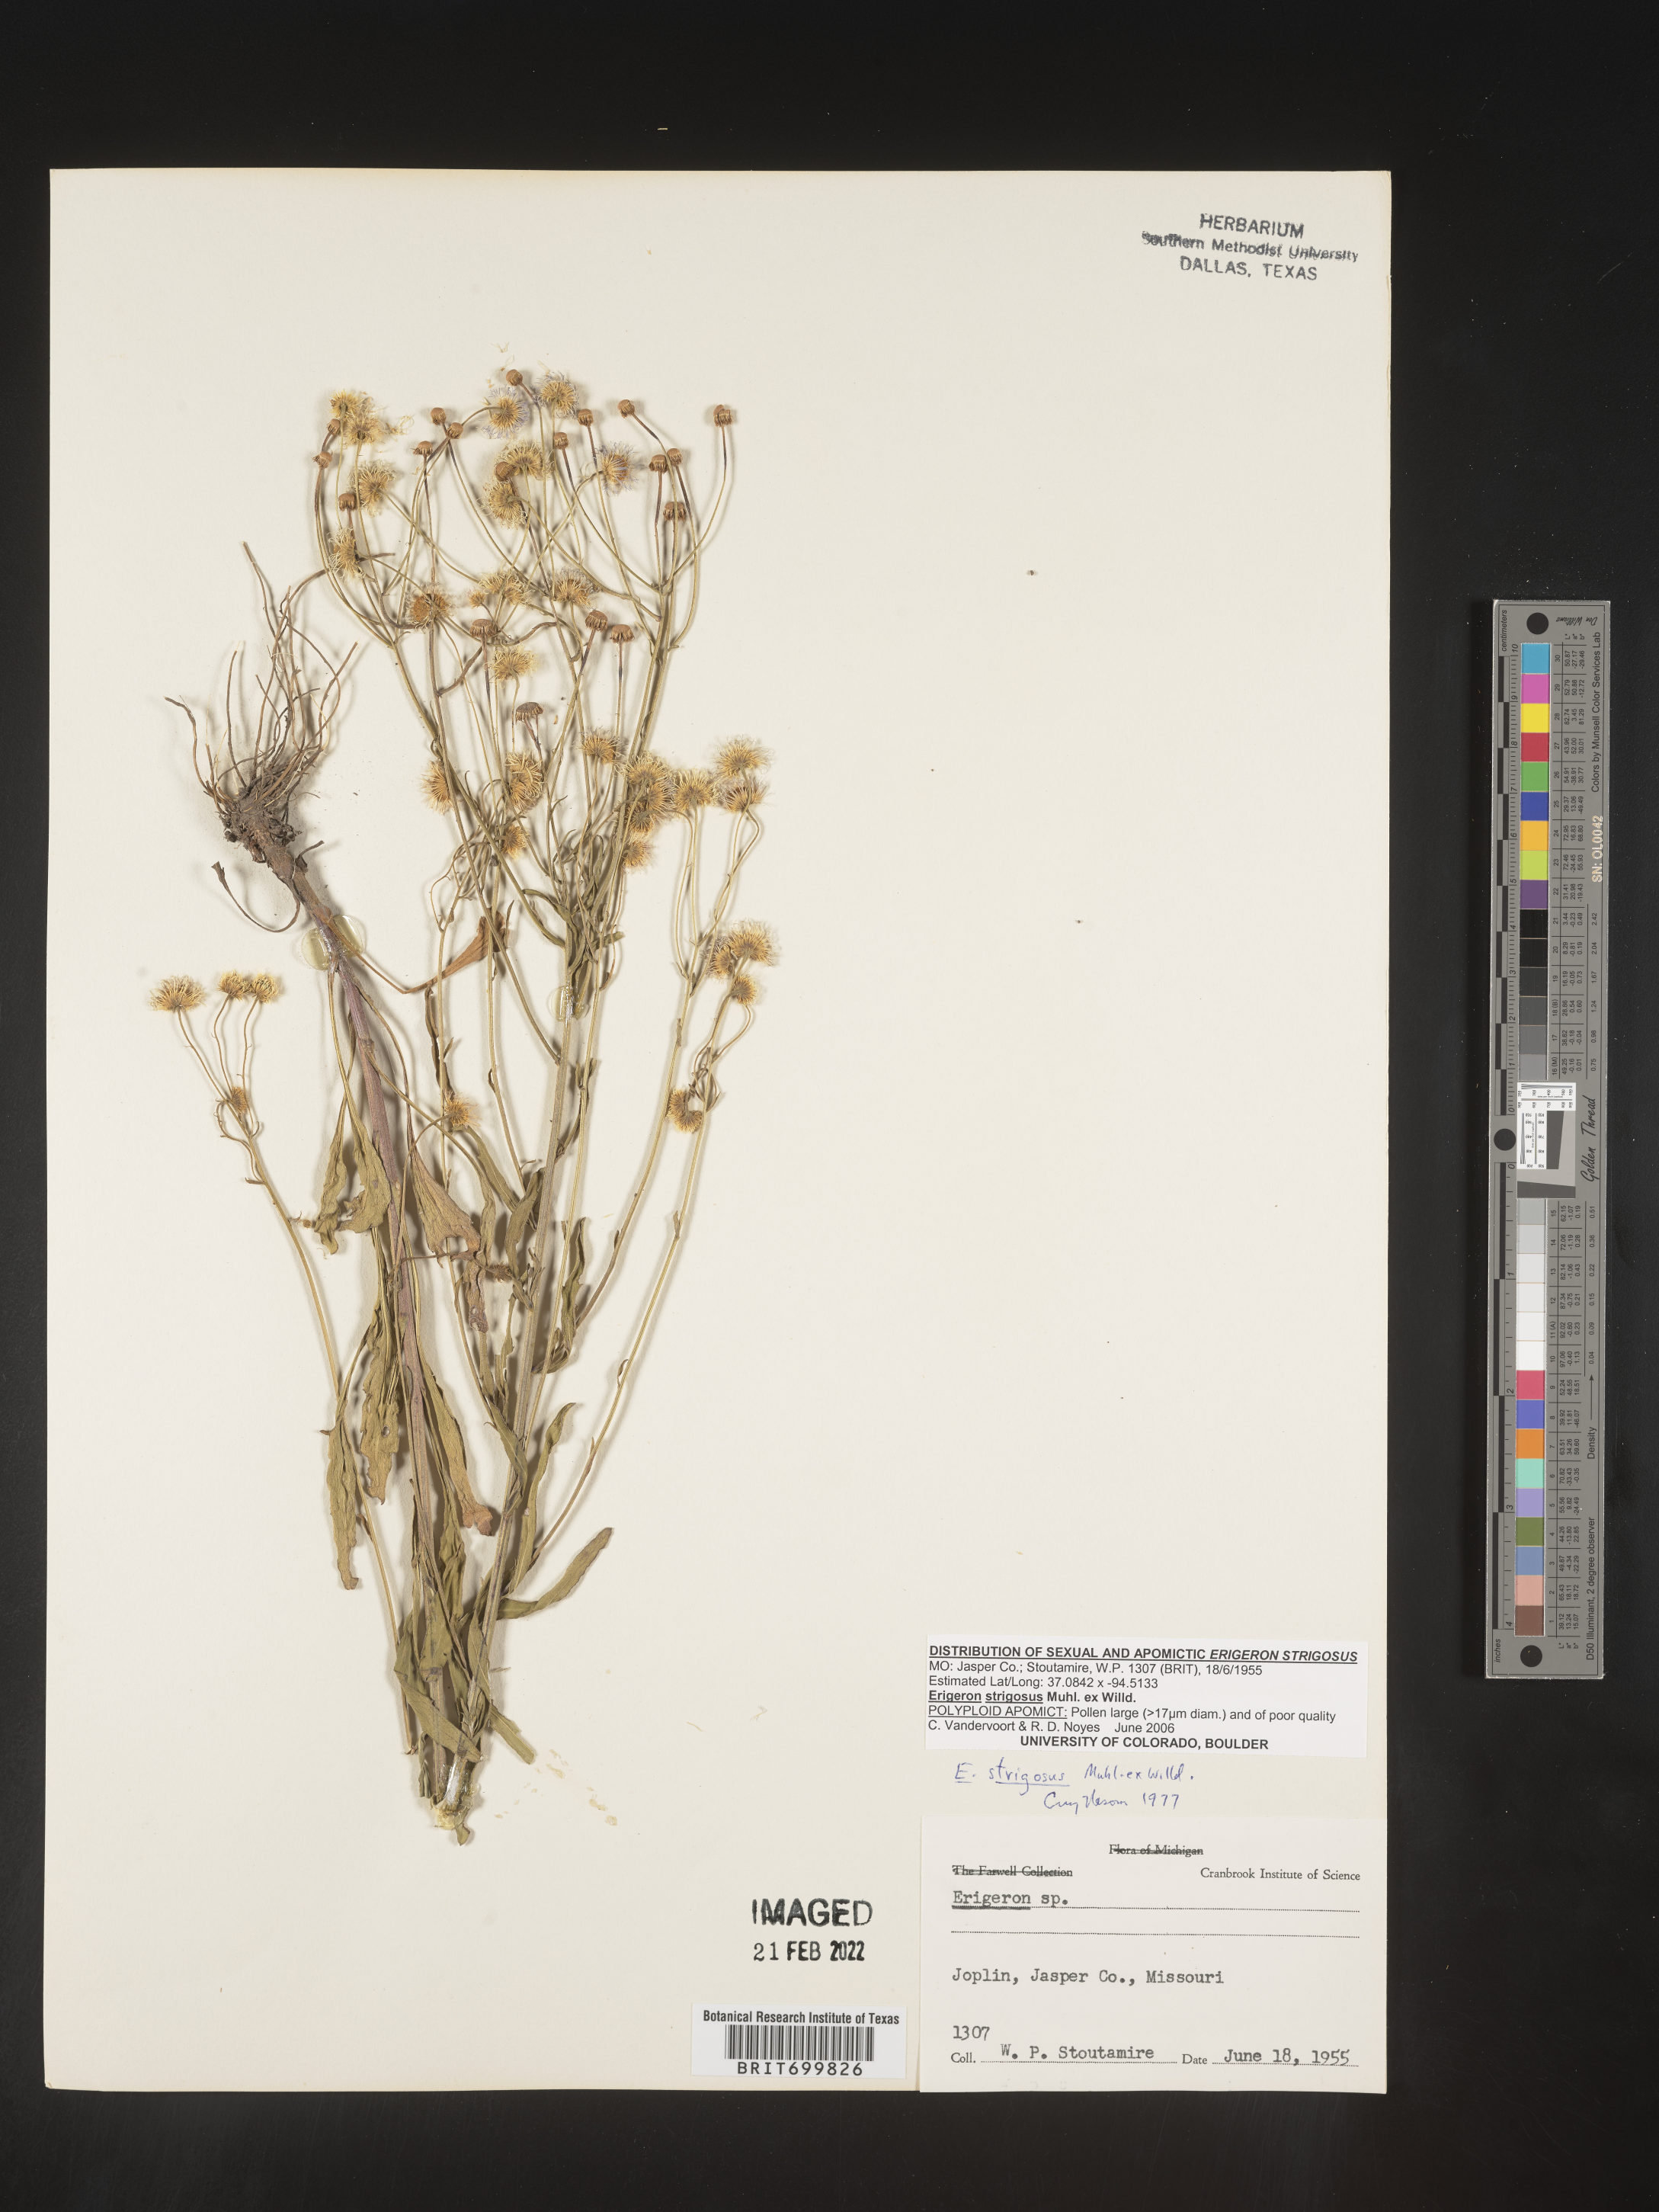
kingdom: Plantae
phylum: Tracheophyta
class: Magnoliopsida
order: Asterales
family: Asteraceae
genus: Erigeron
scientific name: Erigeron strigosus
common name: Common eastern fleabane
